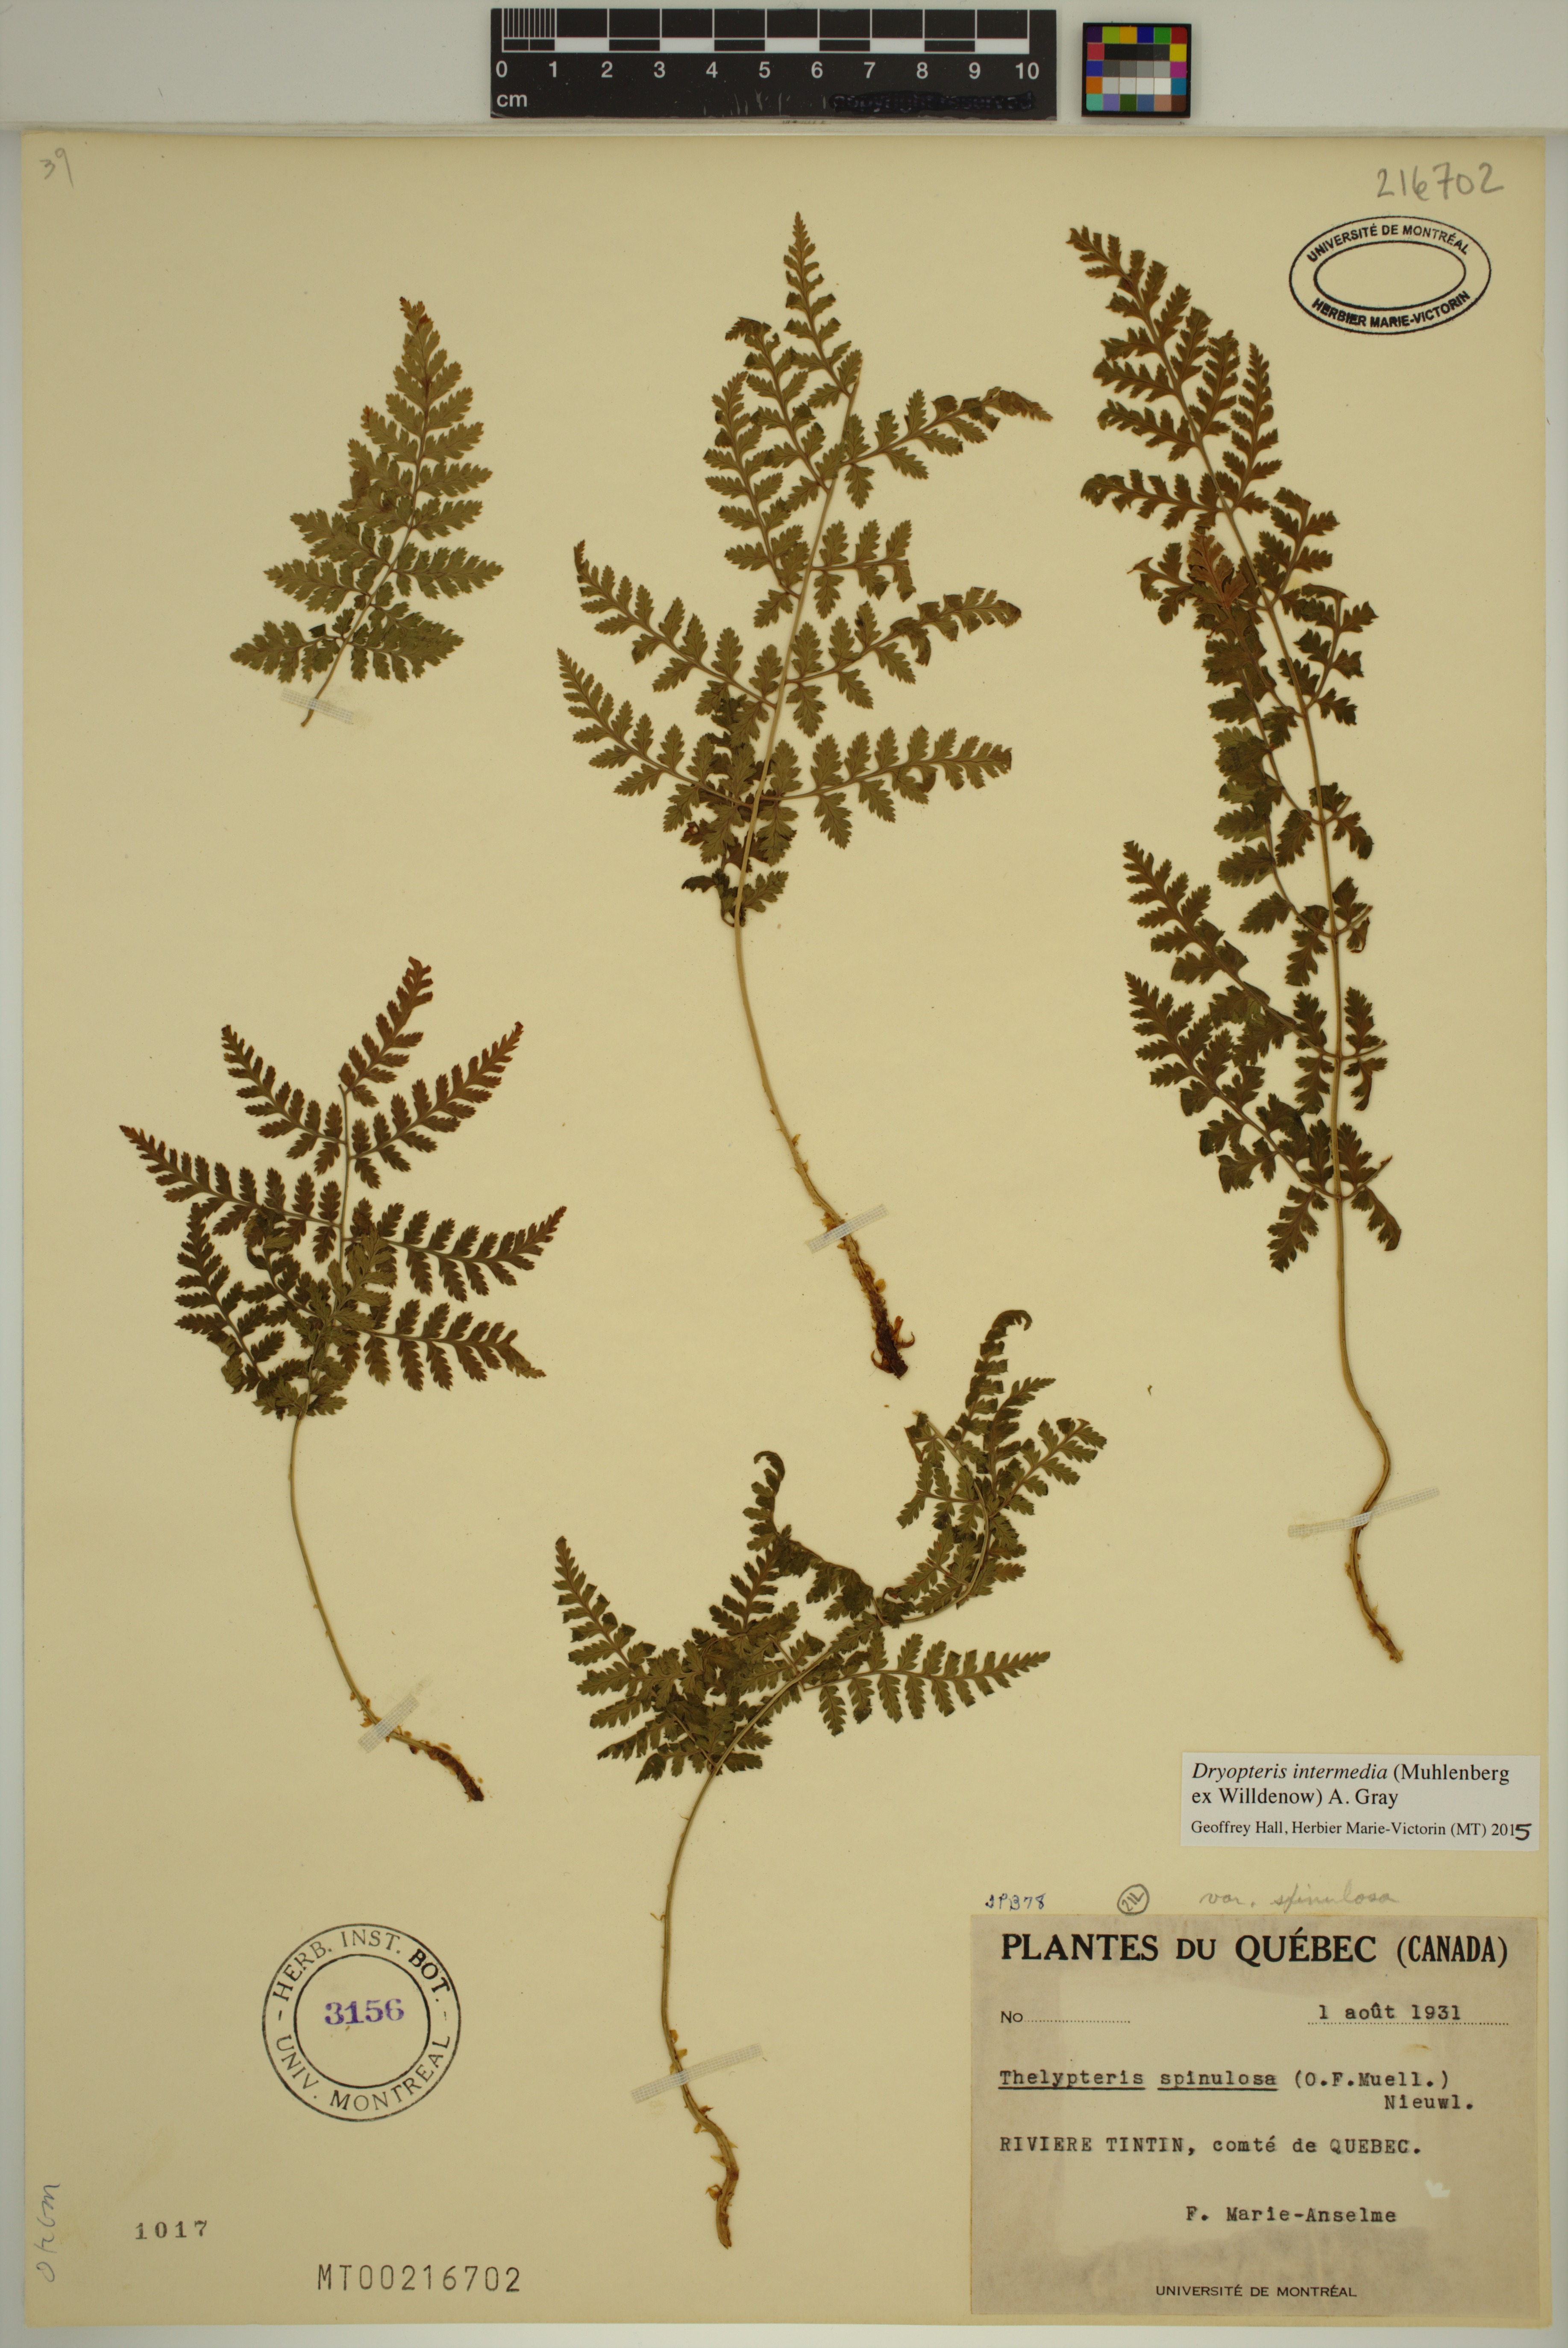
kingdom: Plantae
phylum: Tracheophyta
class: Polypodiopsida
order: Polypodiales
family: Dryopteridaceae
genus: Dryopteris
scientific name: Dryopteris intermedia
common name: Evergreen wood fern
